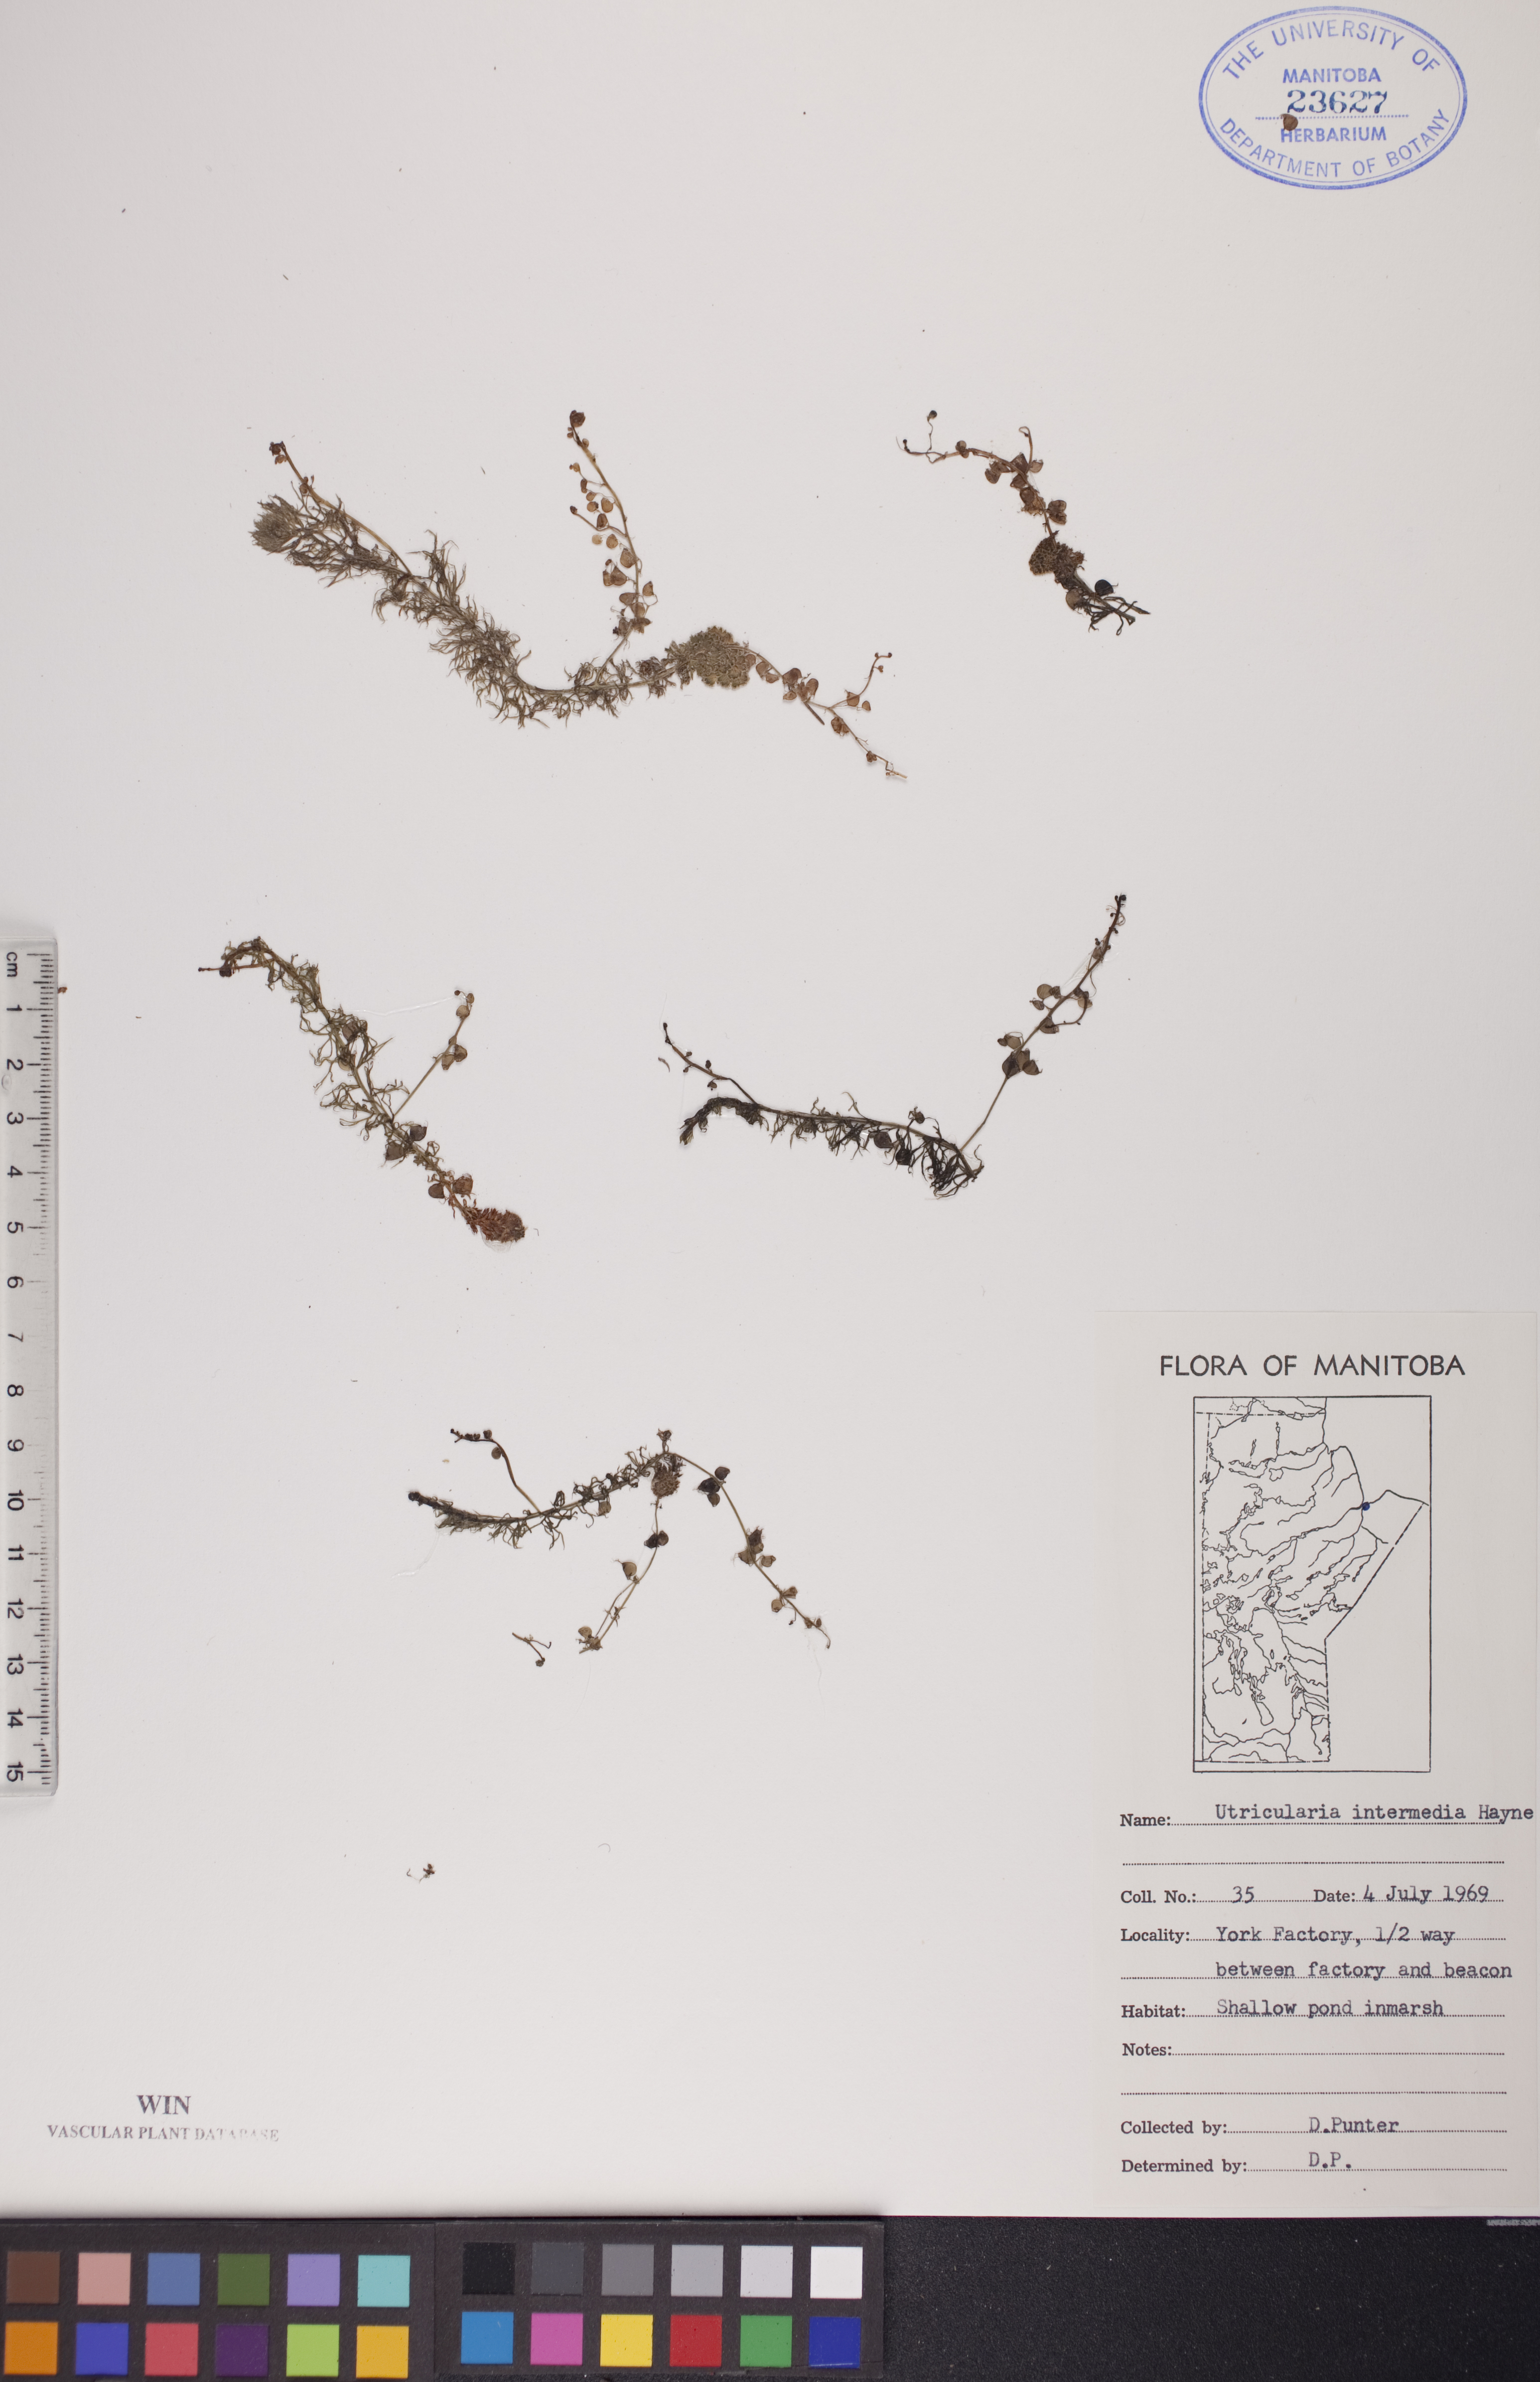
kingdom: Plantae
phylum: Tracheophyta
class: Magnoliopsida
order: Lamiales
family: Lentibulariaceae
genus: Utricularia
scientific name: Utricularia intermedia
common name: Intermediate bladderwort
